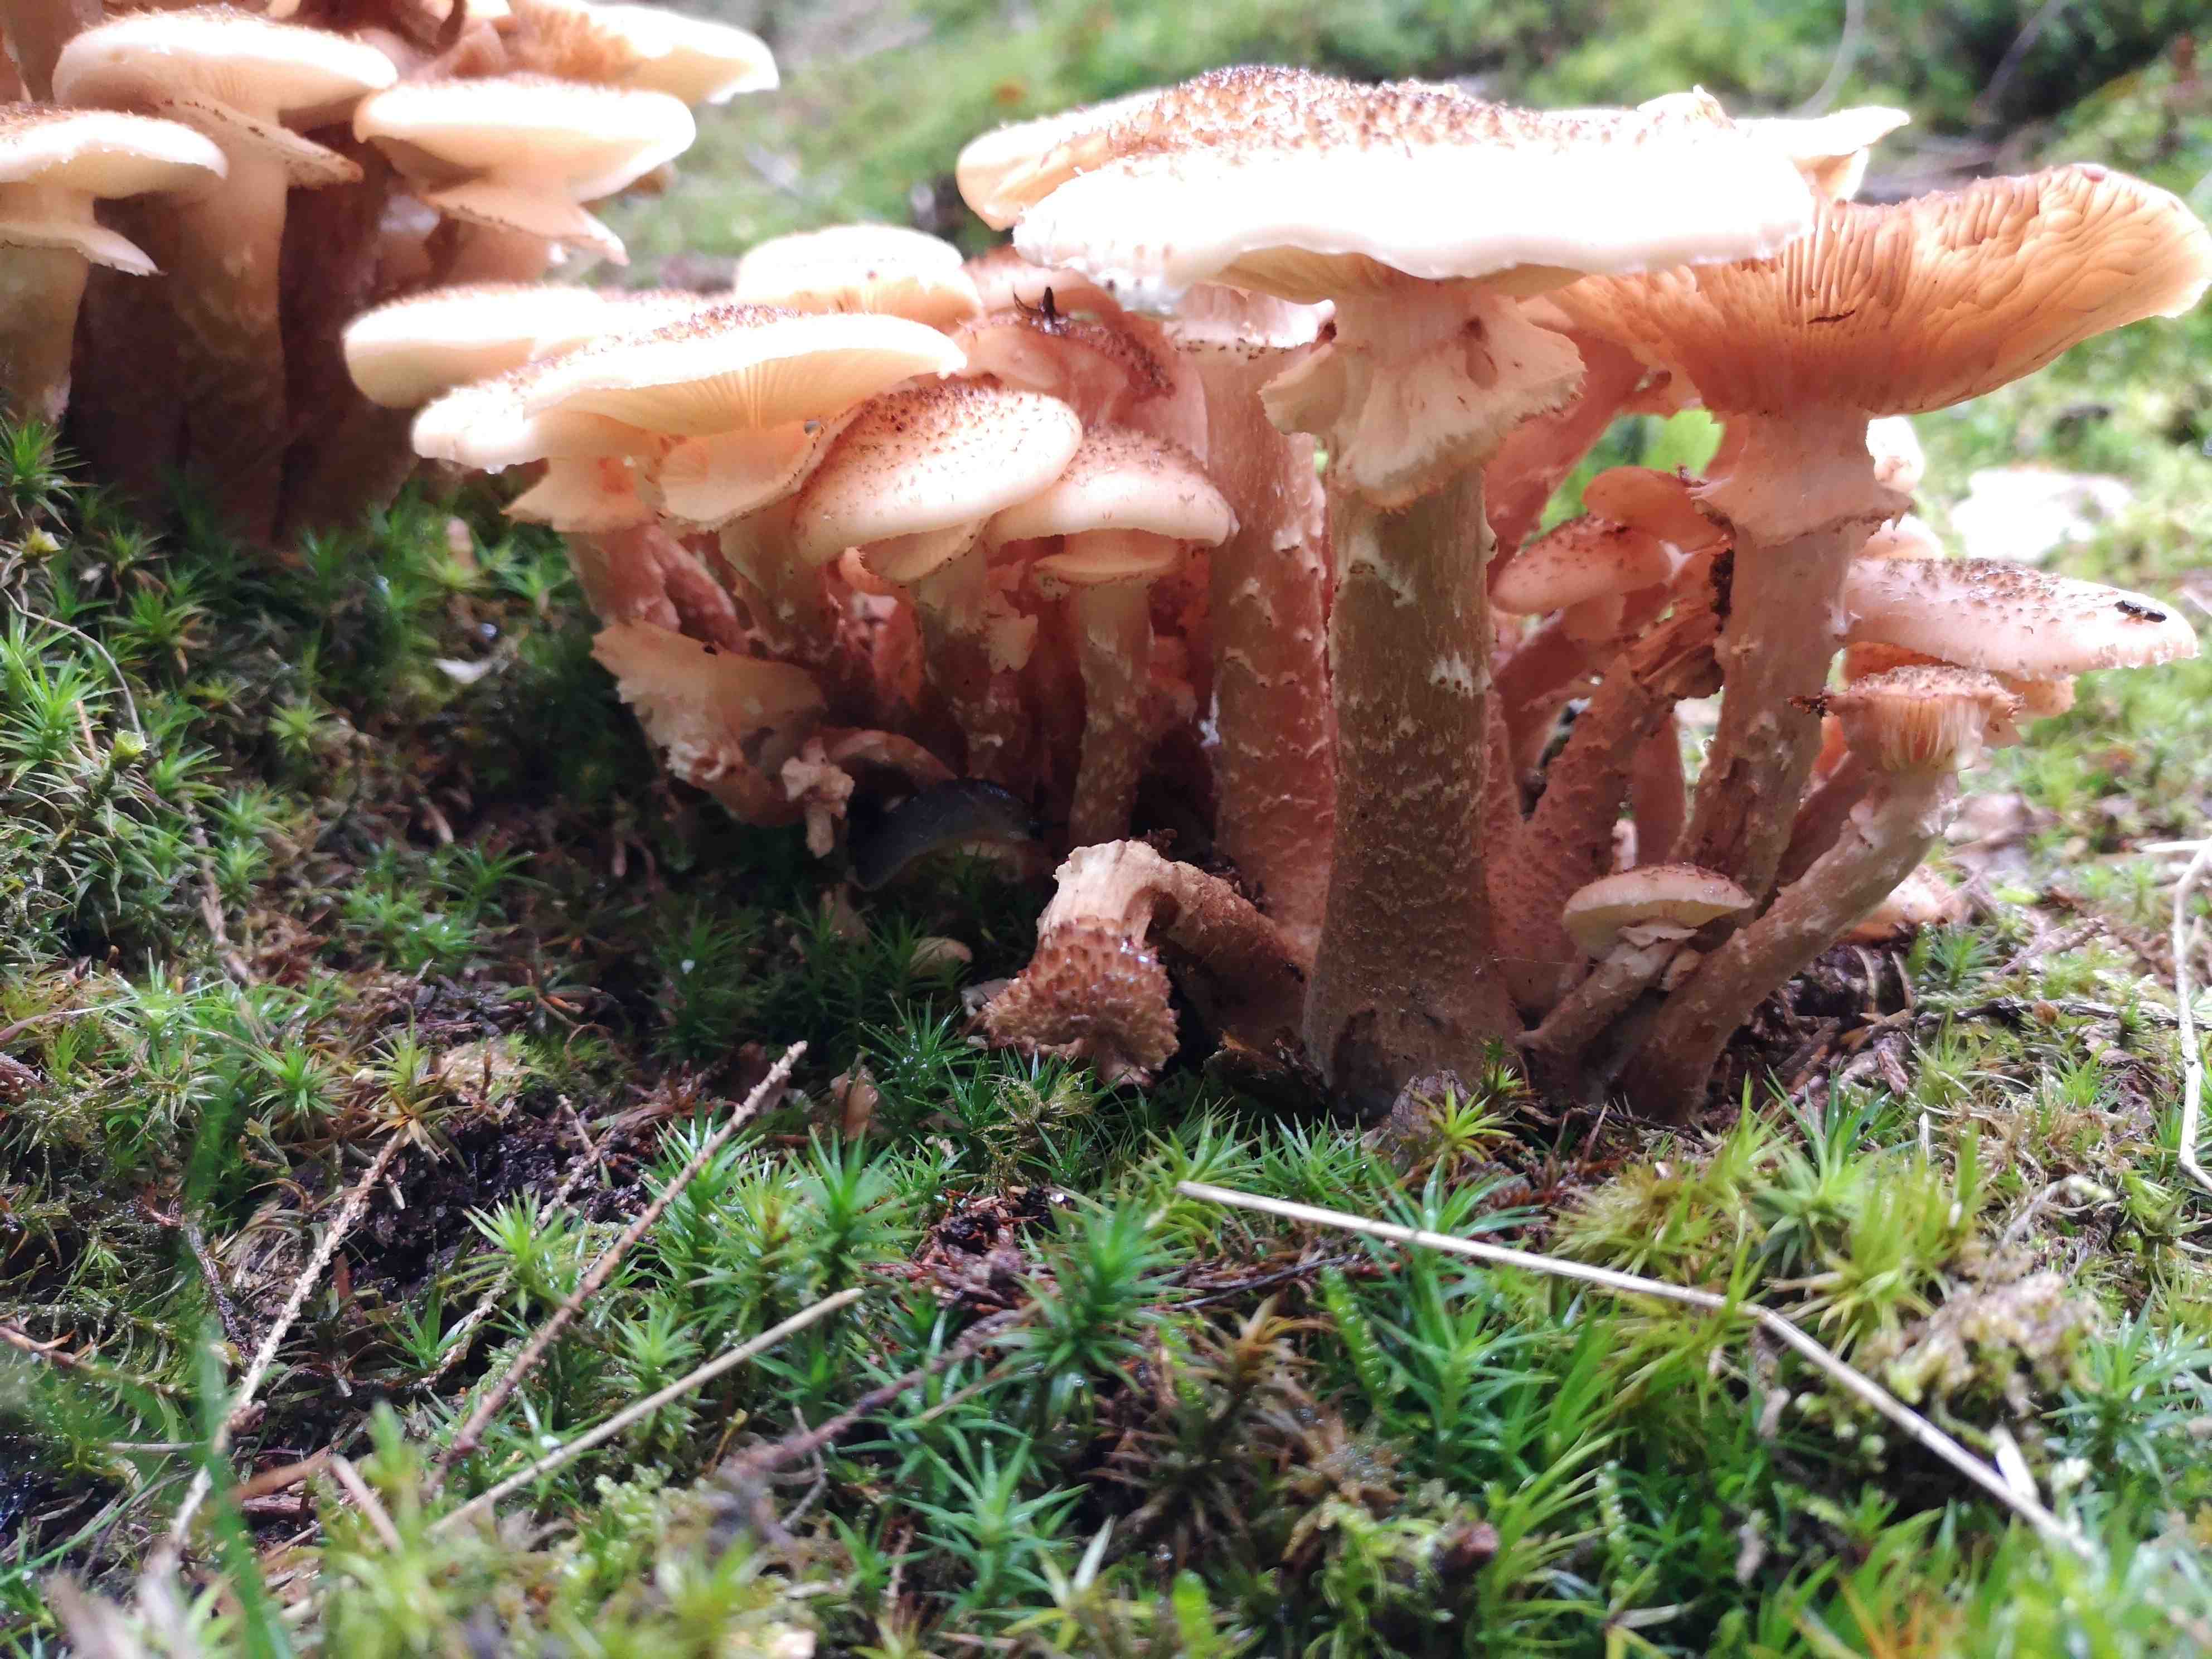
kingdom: Fungi
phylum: Basidiomycota
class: Agaricomycetes
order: Agaricales
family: Physalacriaceae
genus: Armillaria
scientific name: Armillaria ostoyae
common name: mørk honningsvamp
